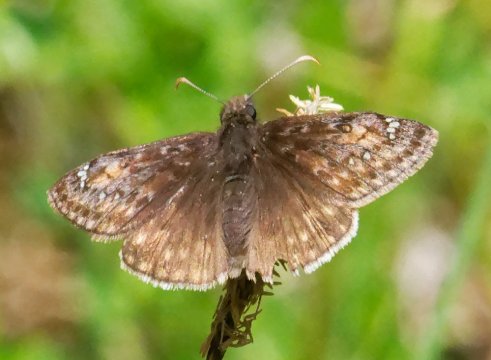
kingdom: Animalia
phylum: Arthropoda
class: Insecta
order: Lepidoptera
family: Hesperiidae
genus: Gesta
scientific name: Gesta
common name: Juvenal's Duskywing
